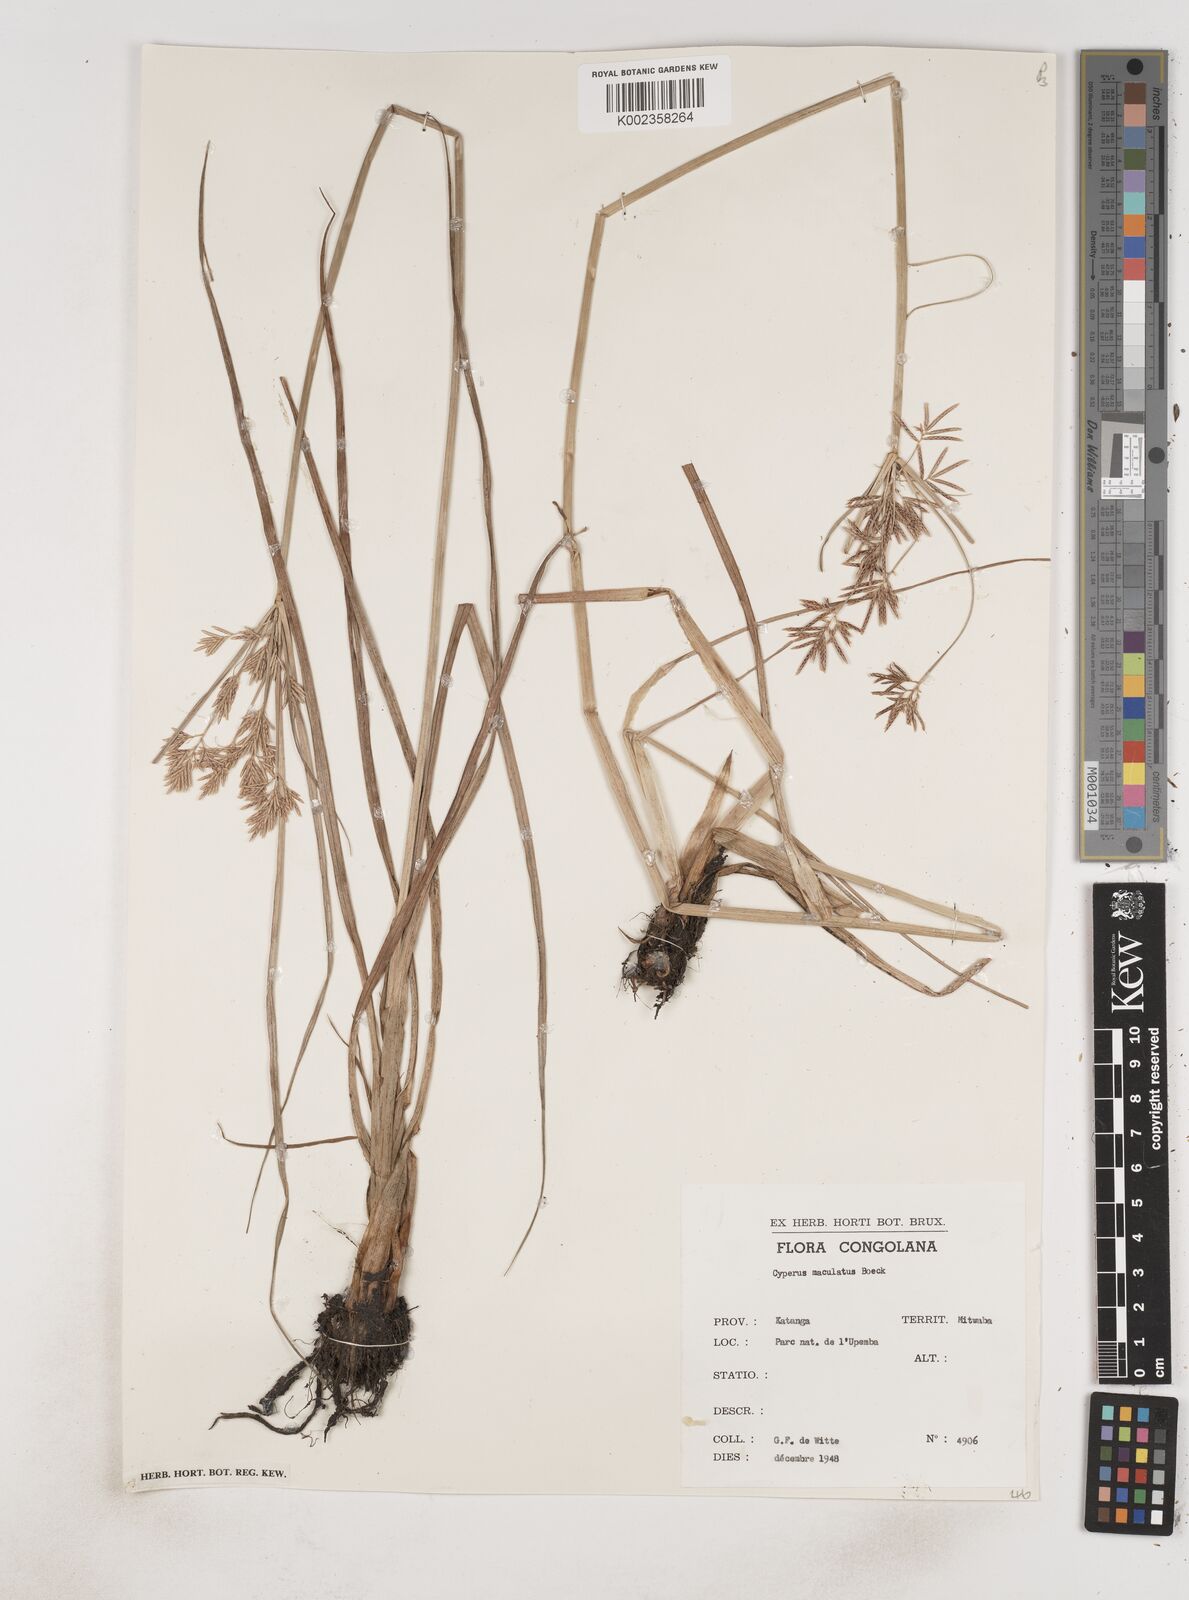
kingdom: Plantae
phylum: Tracheophyta
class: Liliopsida
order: Poales
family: Cyperaceae
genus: Cyperus
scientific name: Cyperus maculatus
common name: Maculated sedge
